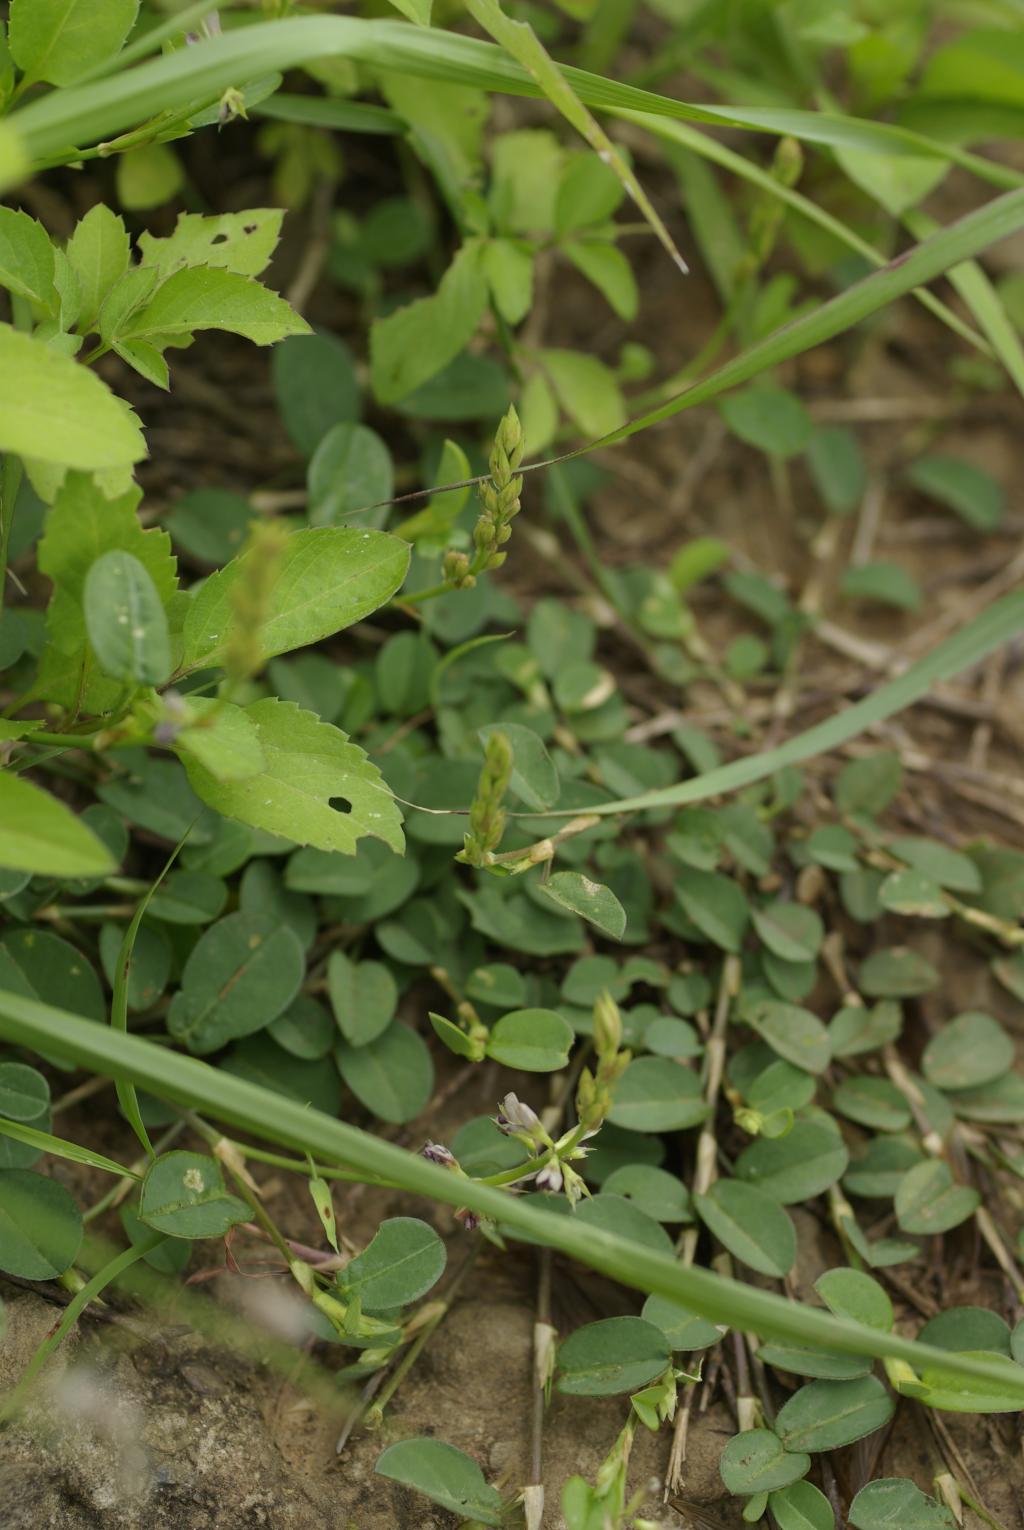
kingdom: Plantae
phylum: Tracheophyta
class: Magnoliopsida
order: Fabales
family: Fabaceae
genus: Alysicarpus
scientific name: Alysicarpus ovalifolius
